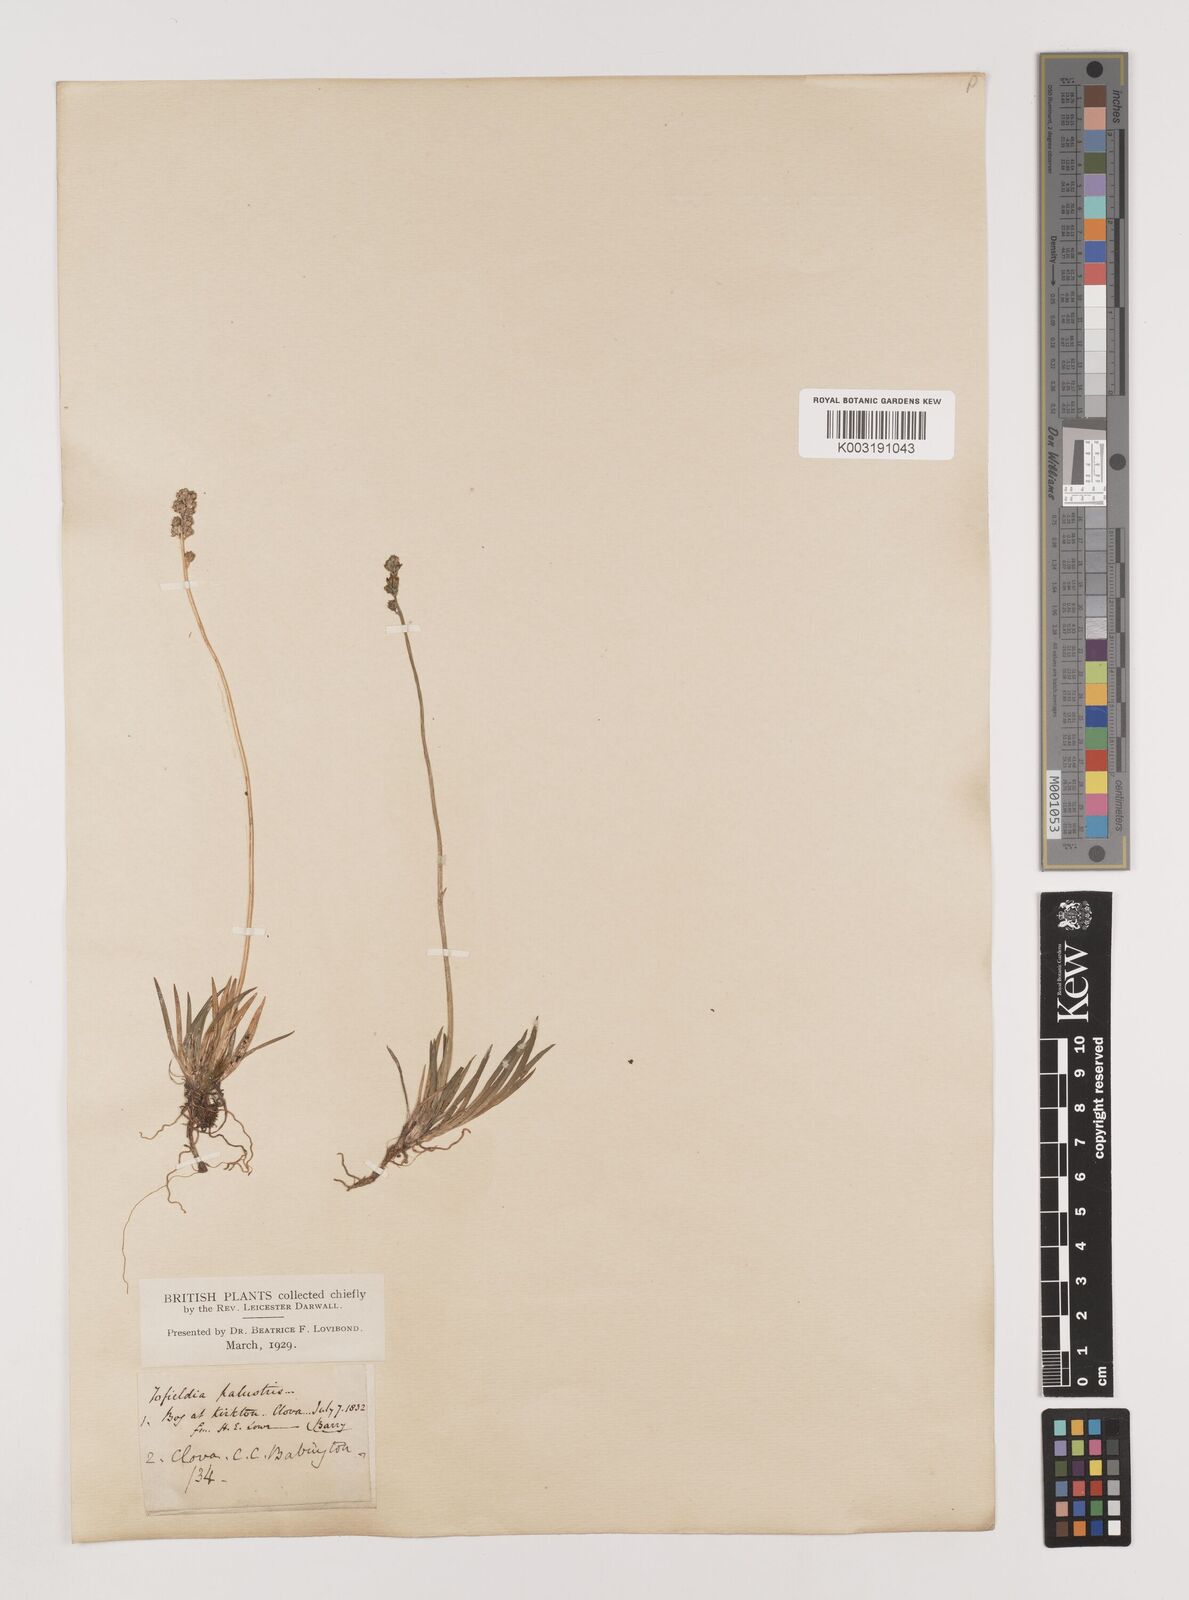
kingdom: Plantae
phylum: Tracheophyta
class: Liliopsida
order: Alismatales
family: Tofieldiaceae
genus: Tofieldia
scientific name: Tofieldia pusilla
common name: Scottish false asphodel
